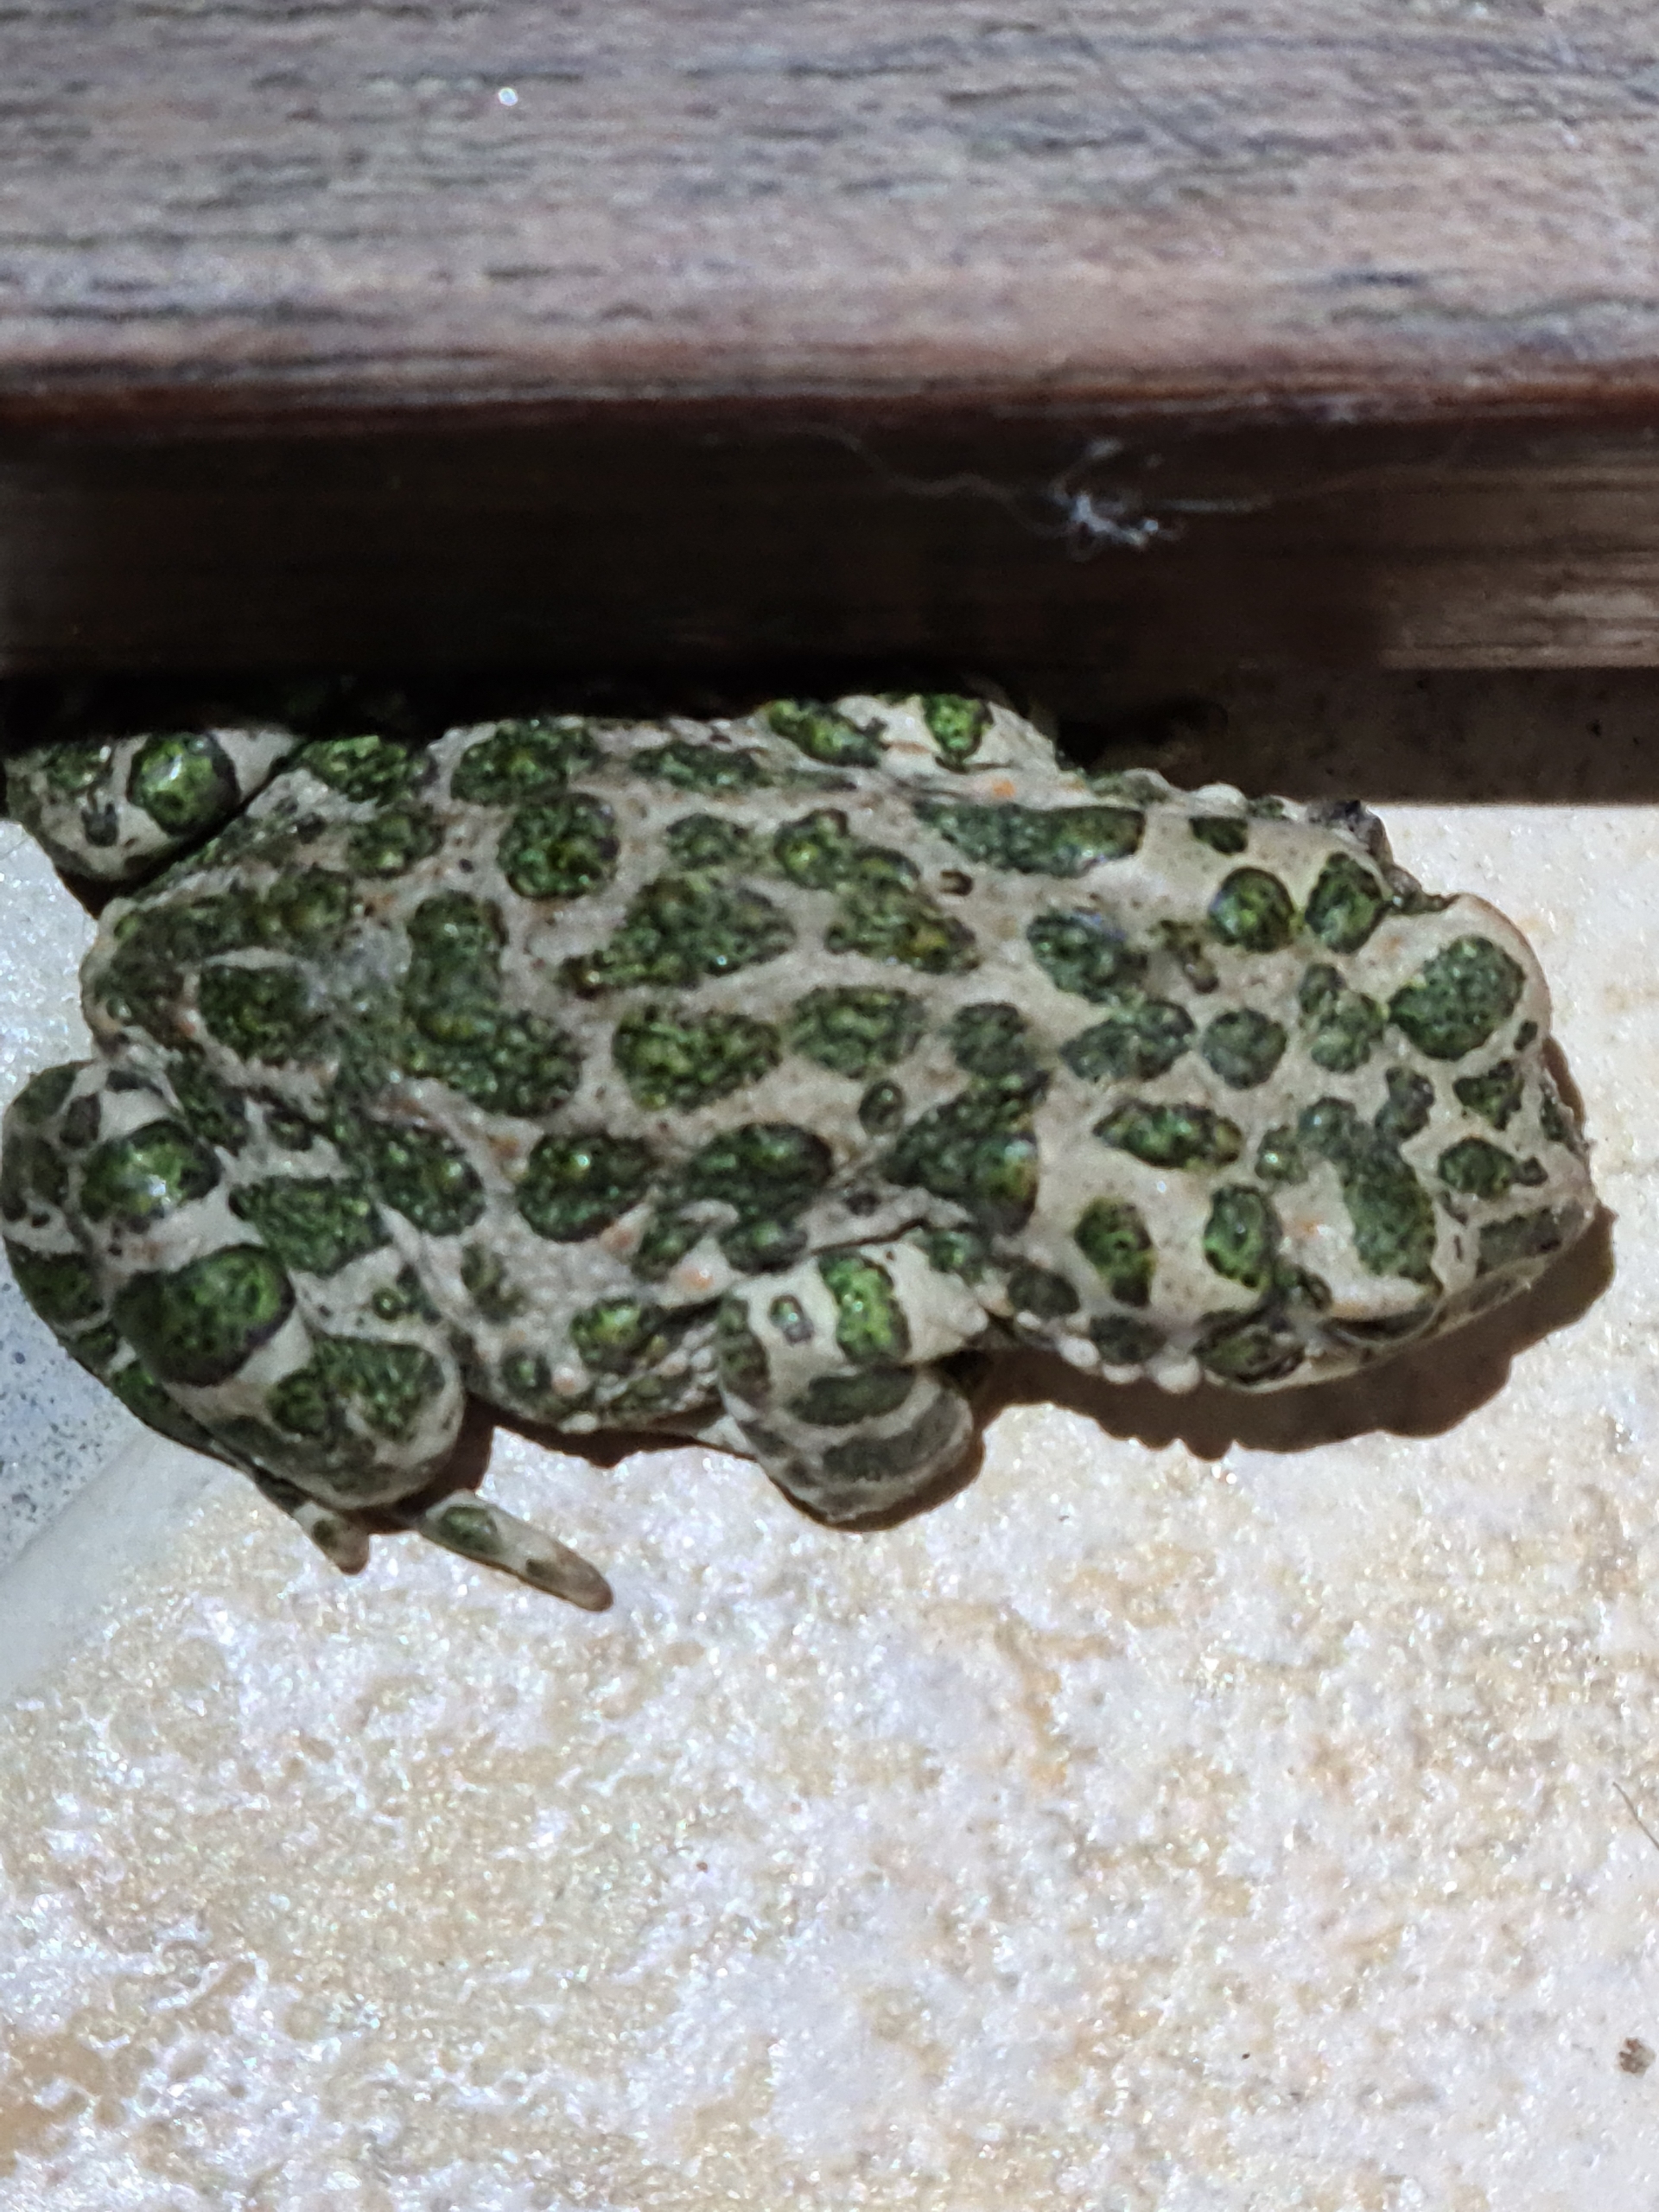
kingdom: Animalia
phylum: Chordata
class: Amphibia
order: Anura
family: Bufonidae
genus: Bufotes
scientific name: Bufotes viridis
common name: Grønbroget tudse
